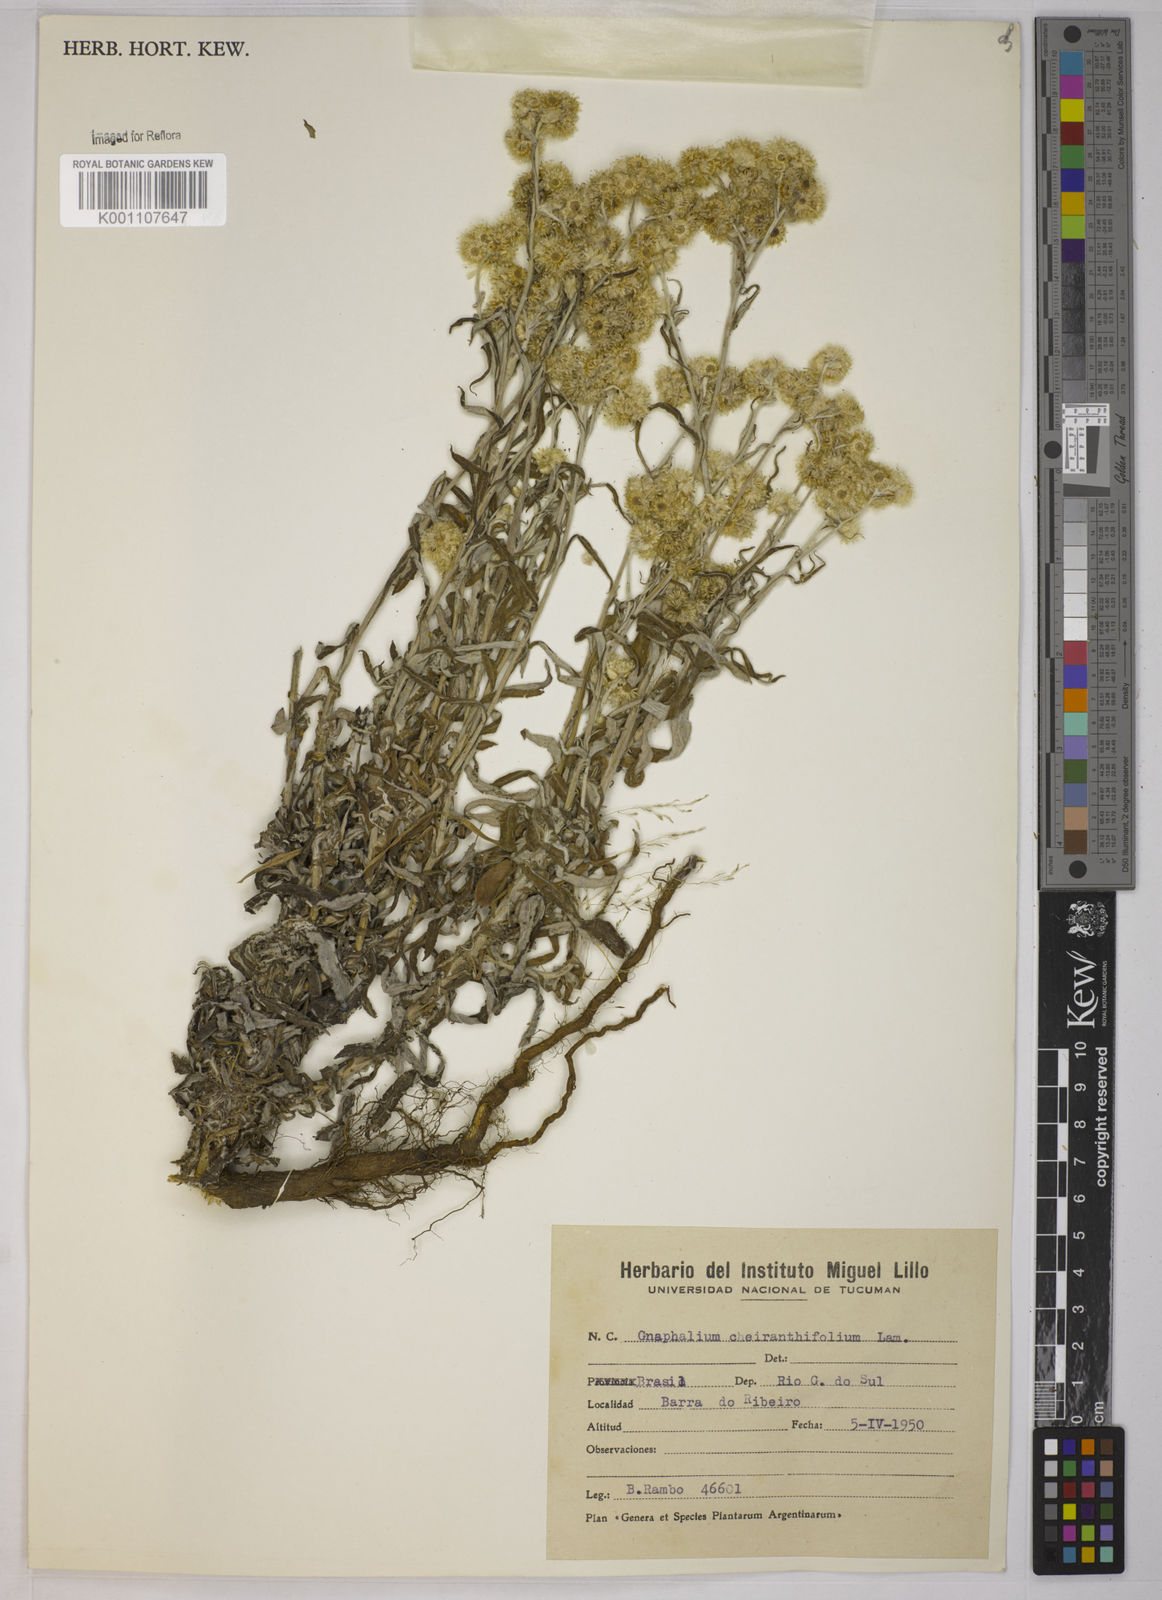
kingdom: Plantae
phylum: Tracheophyta
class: Magnoliopsida
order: Asterales
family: Asteraceae
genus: Pseudognaphalium
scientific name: Pseudognaphalium cheiranthifolium
